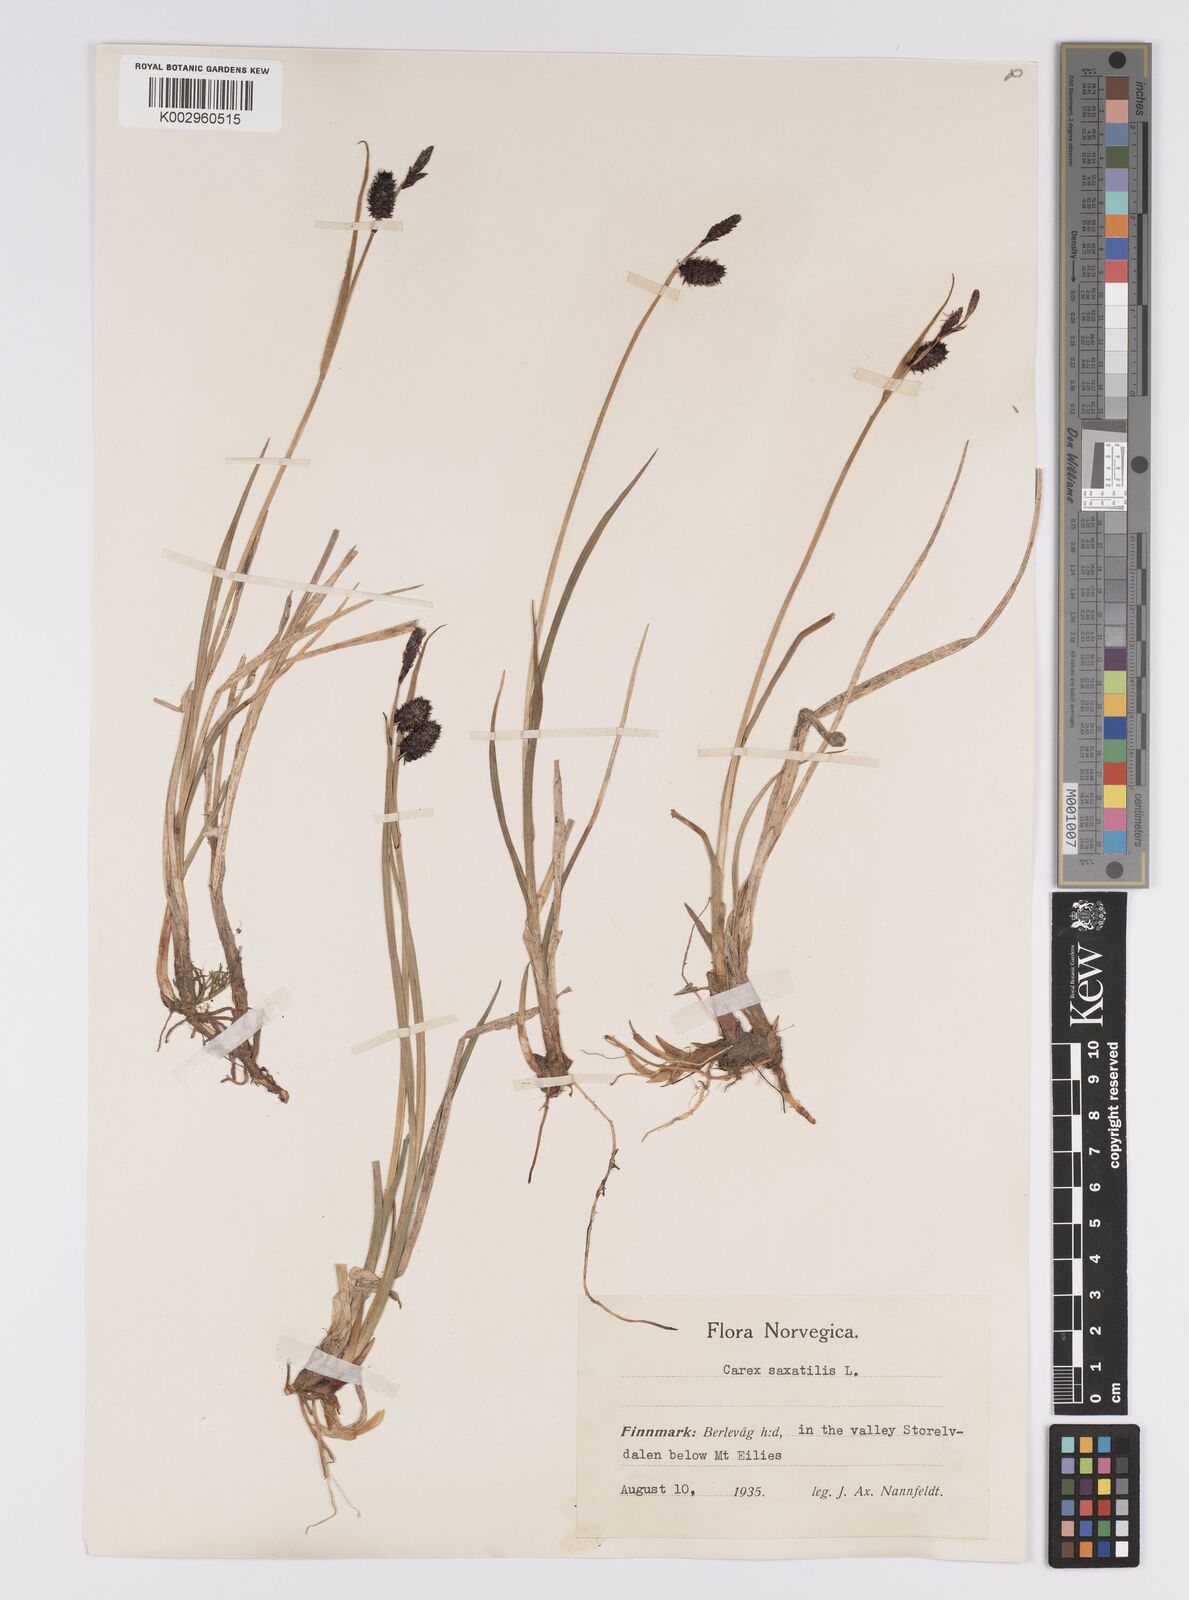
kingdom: Plantae
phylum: Tracheophyta
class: Liliopsida
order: Poales
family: Cyperaceae
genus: Carex
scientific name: Carex saxatilis
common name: Russet sedge
